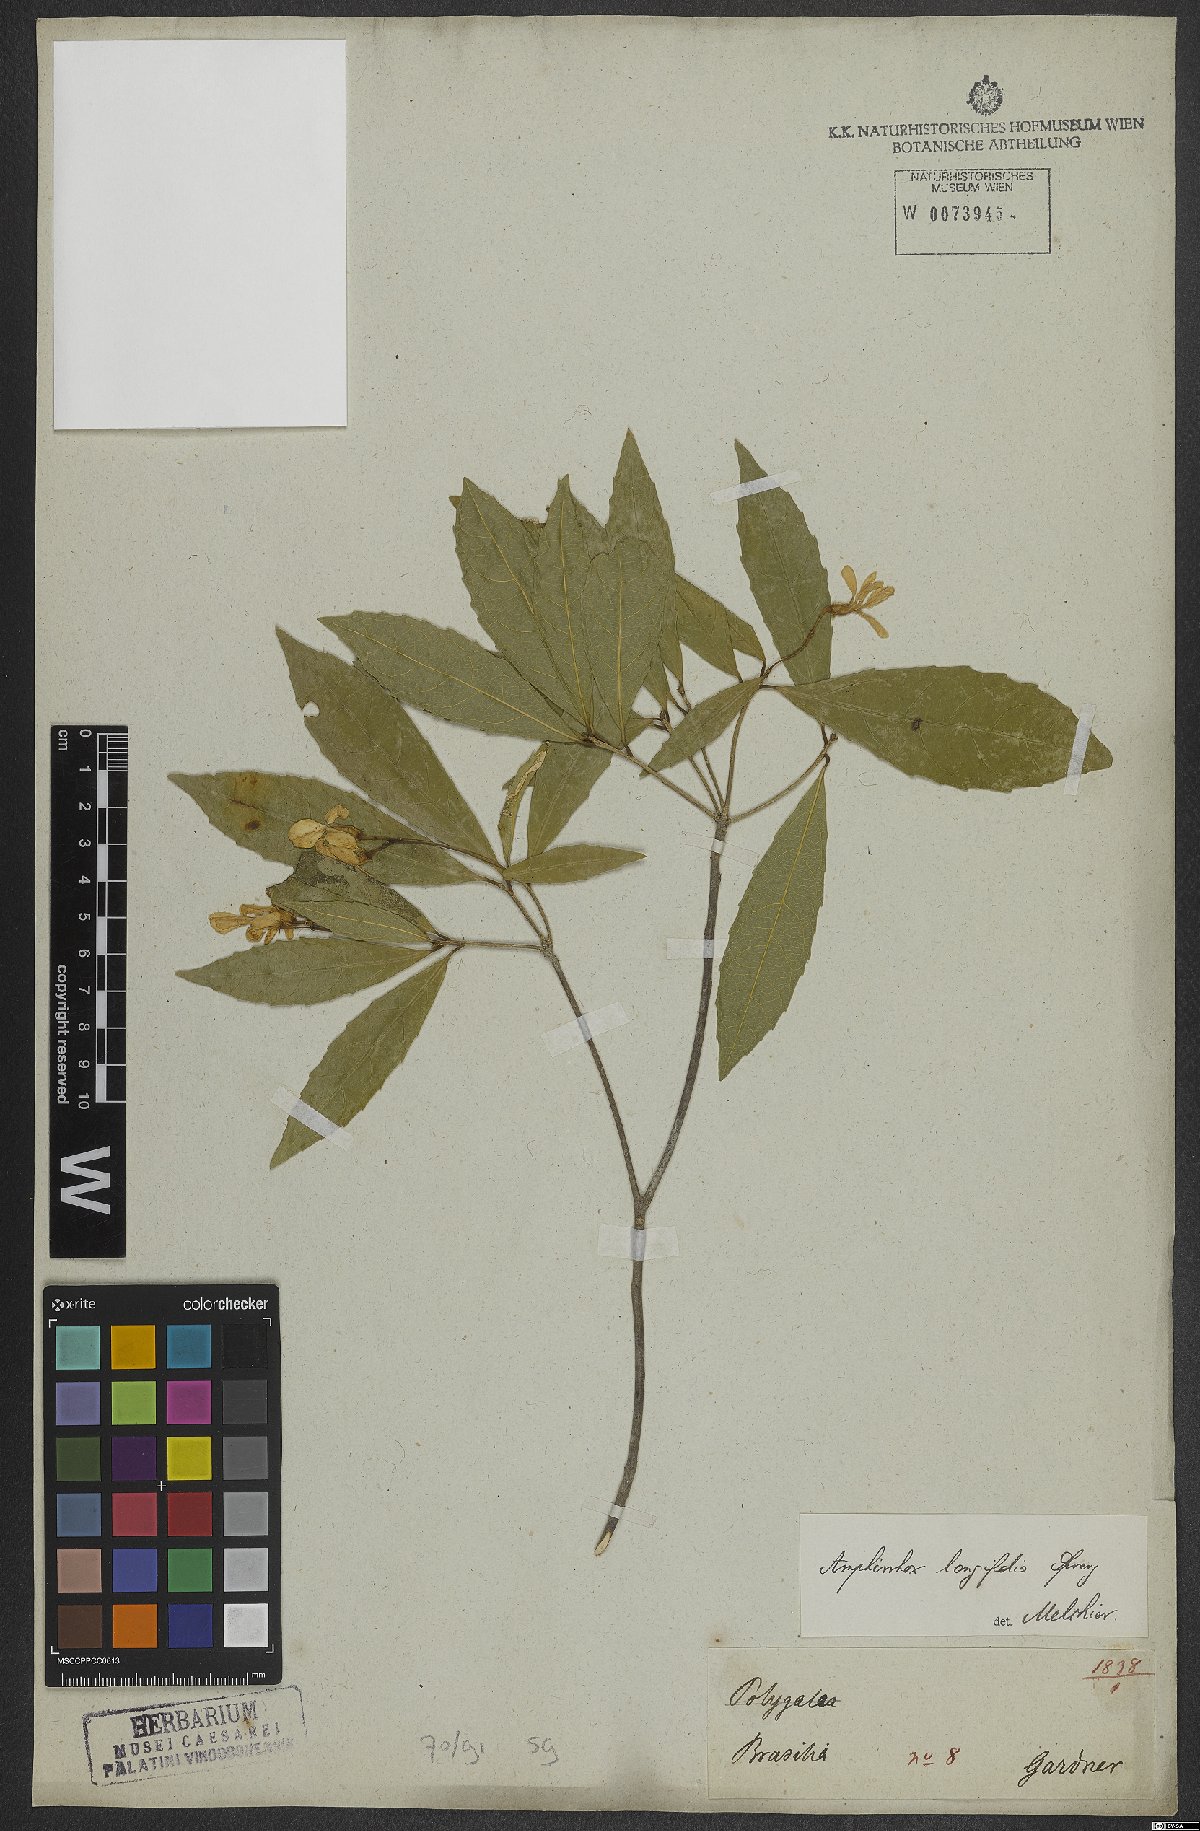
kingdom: Plantae
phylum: Tracheophyta
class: Magnoliopsida
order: Malpighiales
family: Violaceae
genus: Amphirrhox
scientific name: Amphirrhox longifolia
